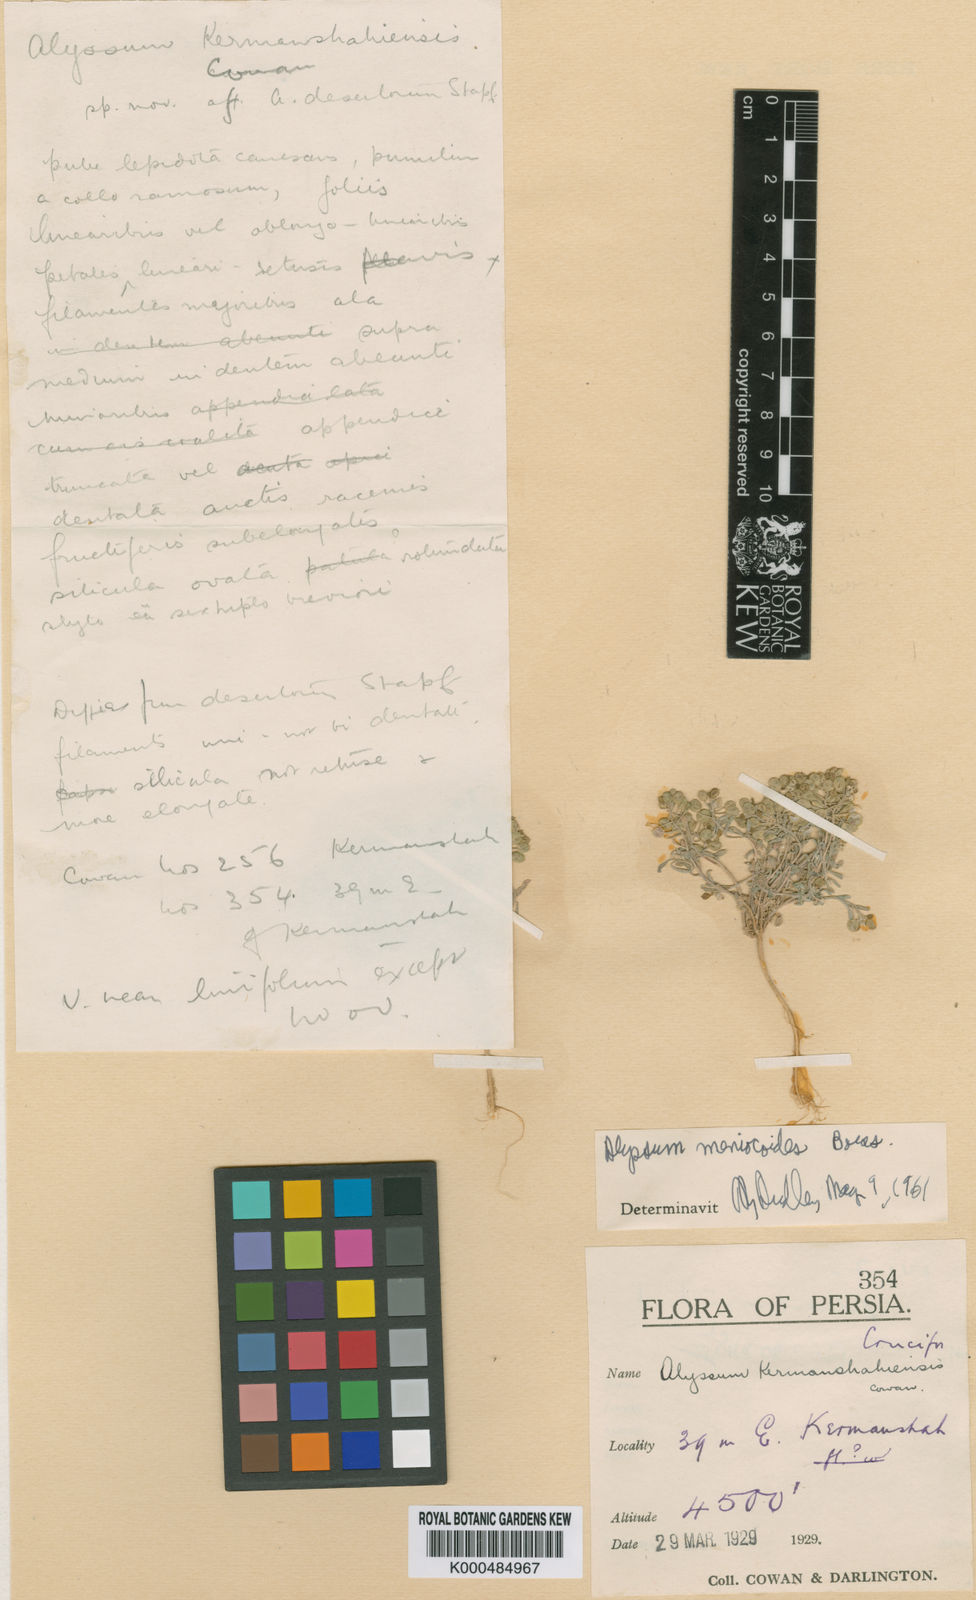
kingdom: Plantae
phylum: Tracheophyta
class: Magnoliopsida
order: Brassicales
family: Brassicaceae
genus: Meniocus
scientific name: Meniocus
